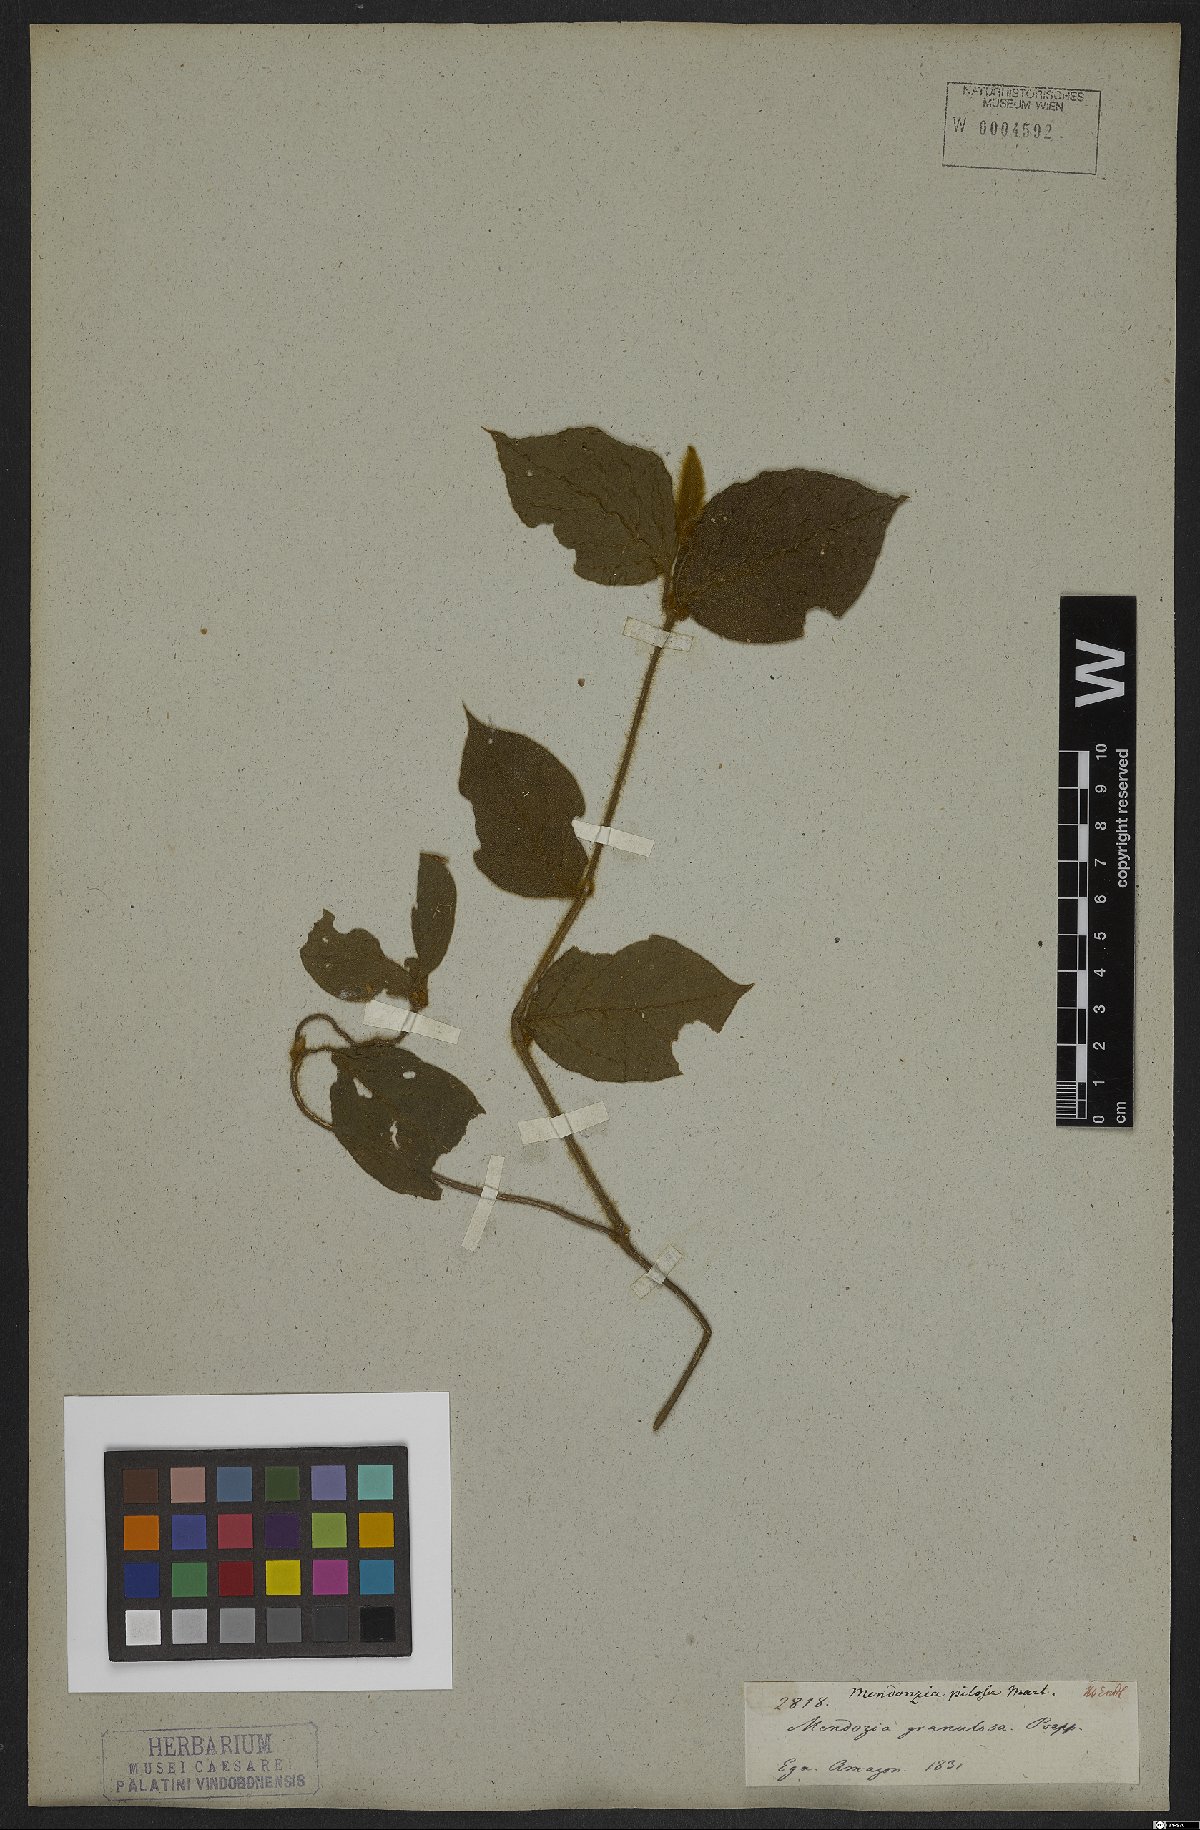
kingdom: Plantae
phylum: Tracheophyta
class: Magnoliopsida
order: Lamiales
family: Acanthaceae
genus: Mendoncia
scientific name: Mendoncia pilosa
